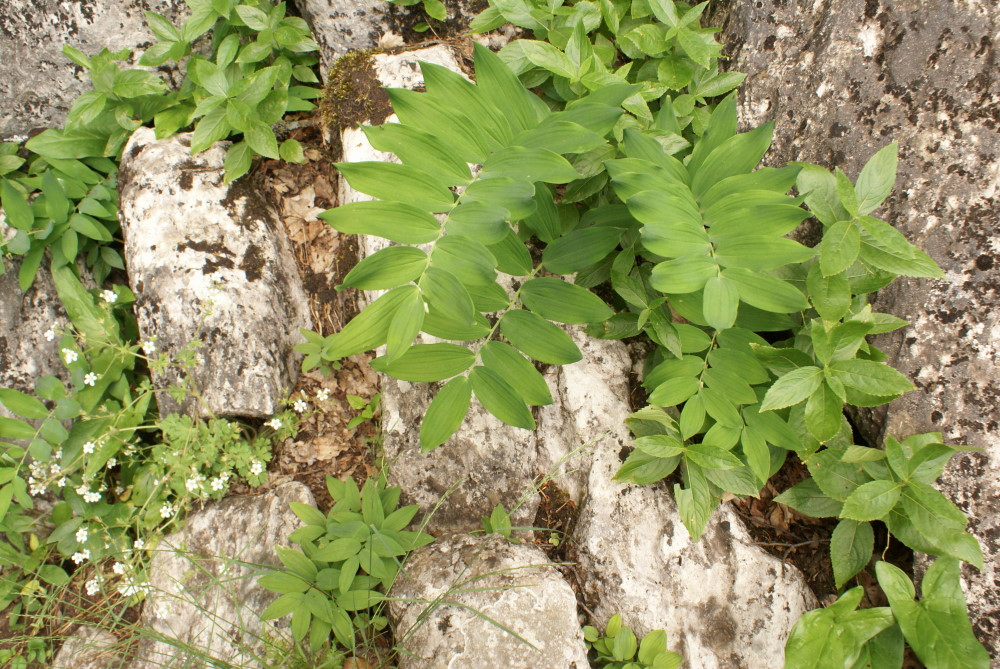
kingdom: Plantae
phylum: Tracheophyta
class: Liliopsida
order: Asparagales
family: Asparagaceae
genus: Polygonatum
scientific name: Polygonatum
